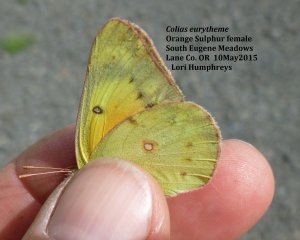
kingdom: Animalia
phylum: Arthropoda
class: Insecta
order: Lepidoptera
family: Pieridae
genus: Colias
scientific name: Colias eurytheme
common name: Orange Sulphur
